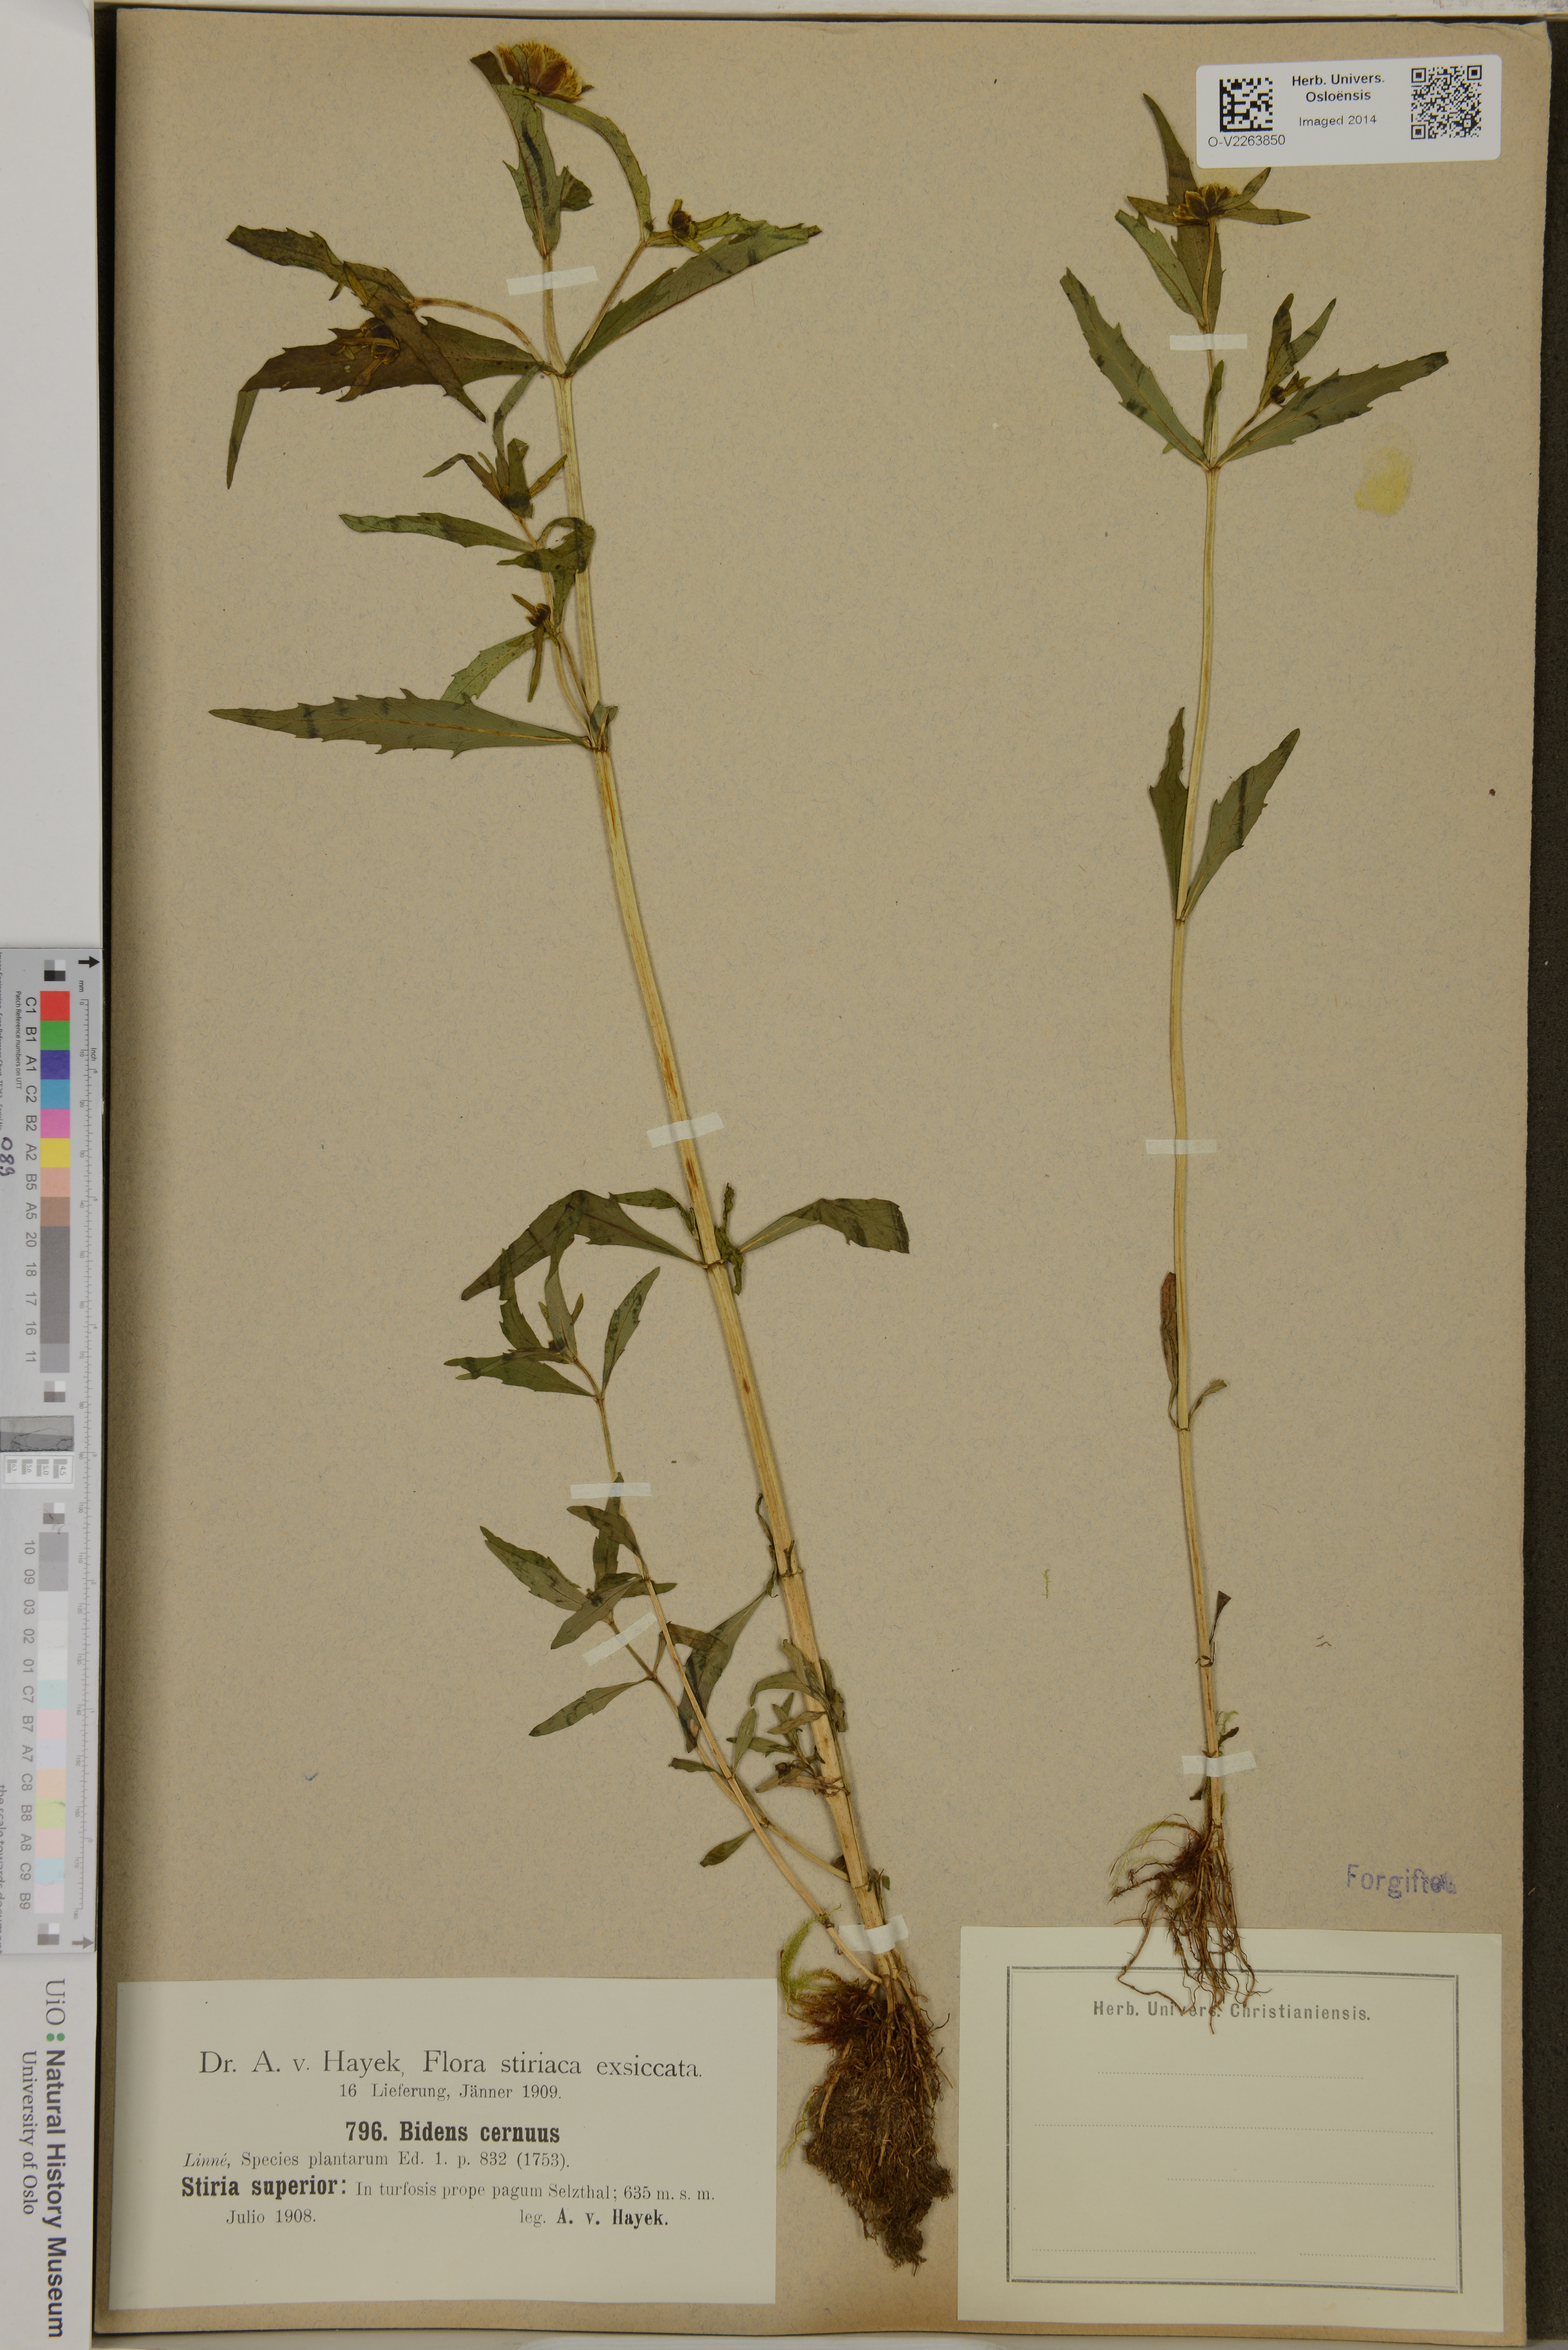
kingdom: Plantae
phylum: Tracheophyta
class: Magnoliopsida
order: Asterales
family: Asteraceae
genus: Bidens
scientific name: Bidens cernua
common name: Nodding bur-marigold
